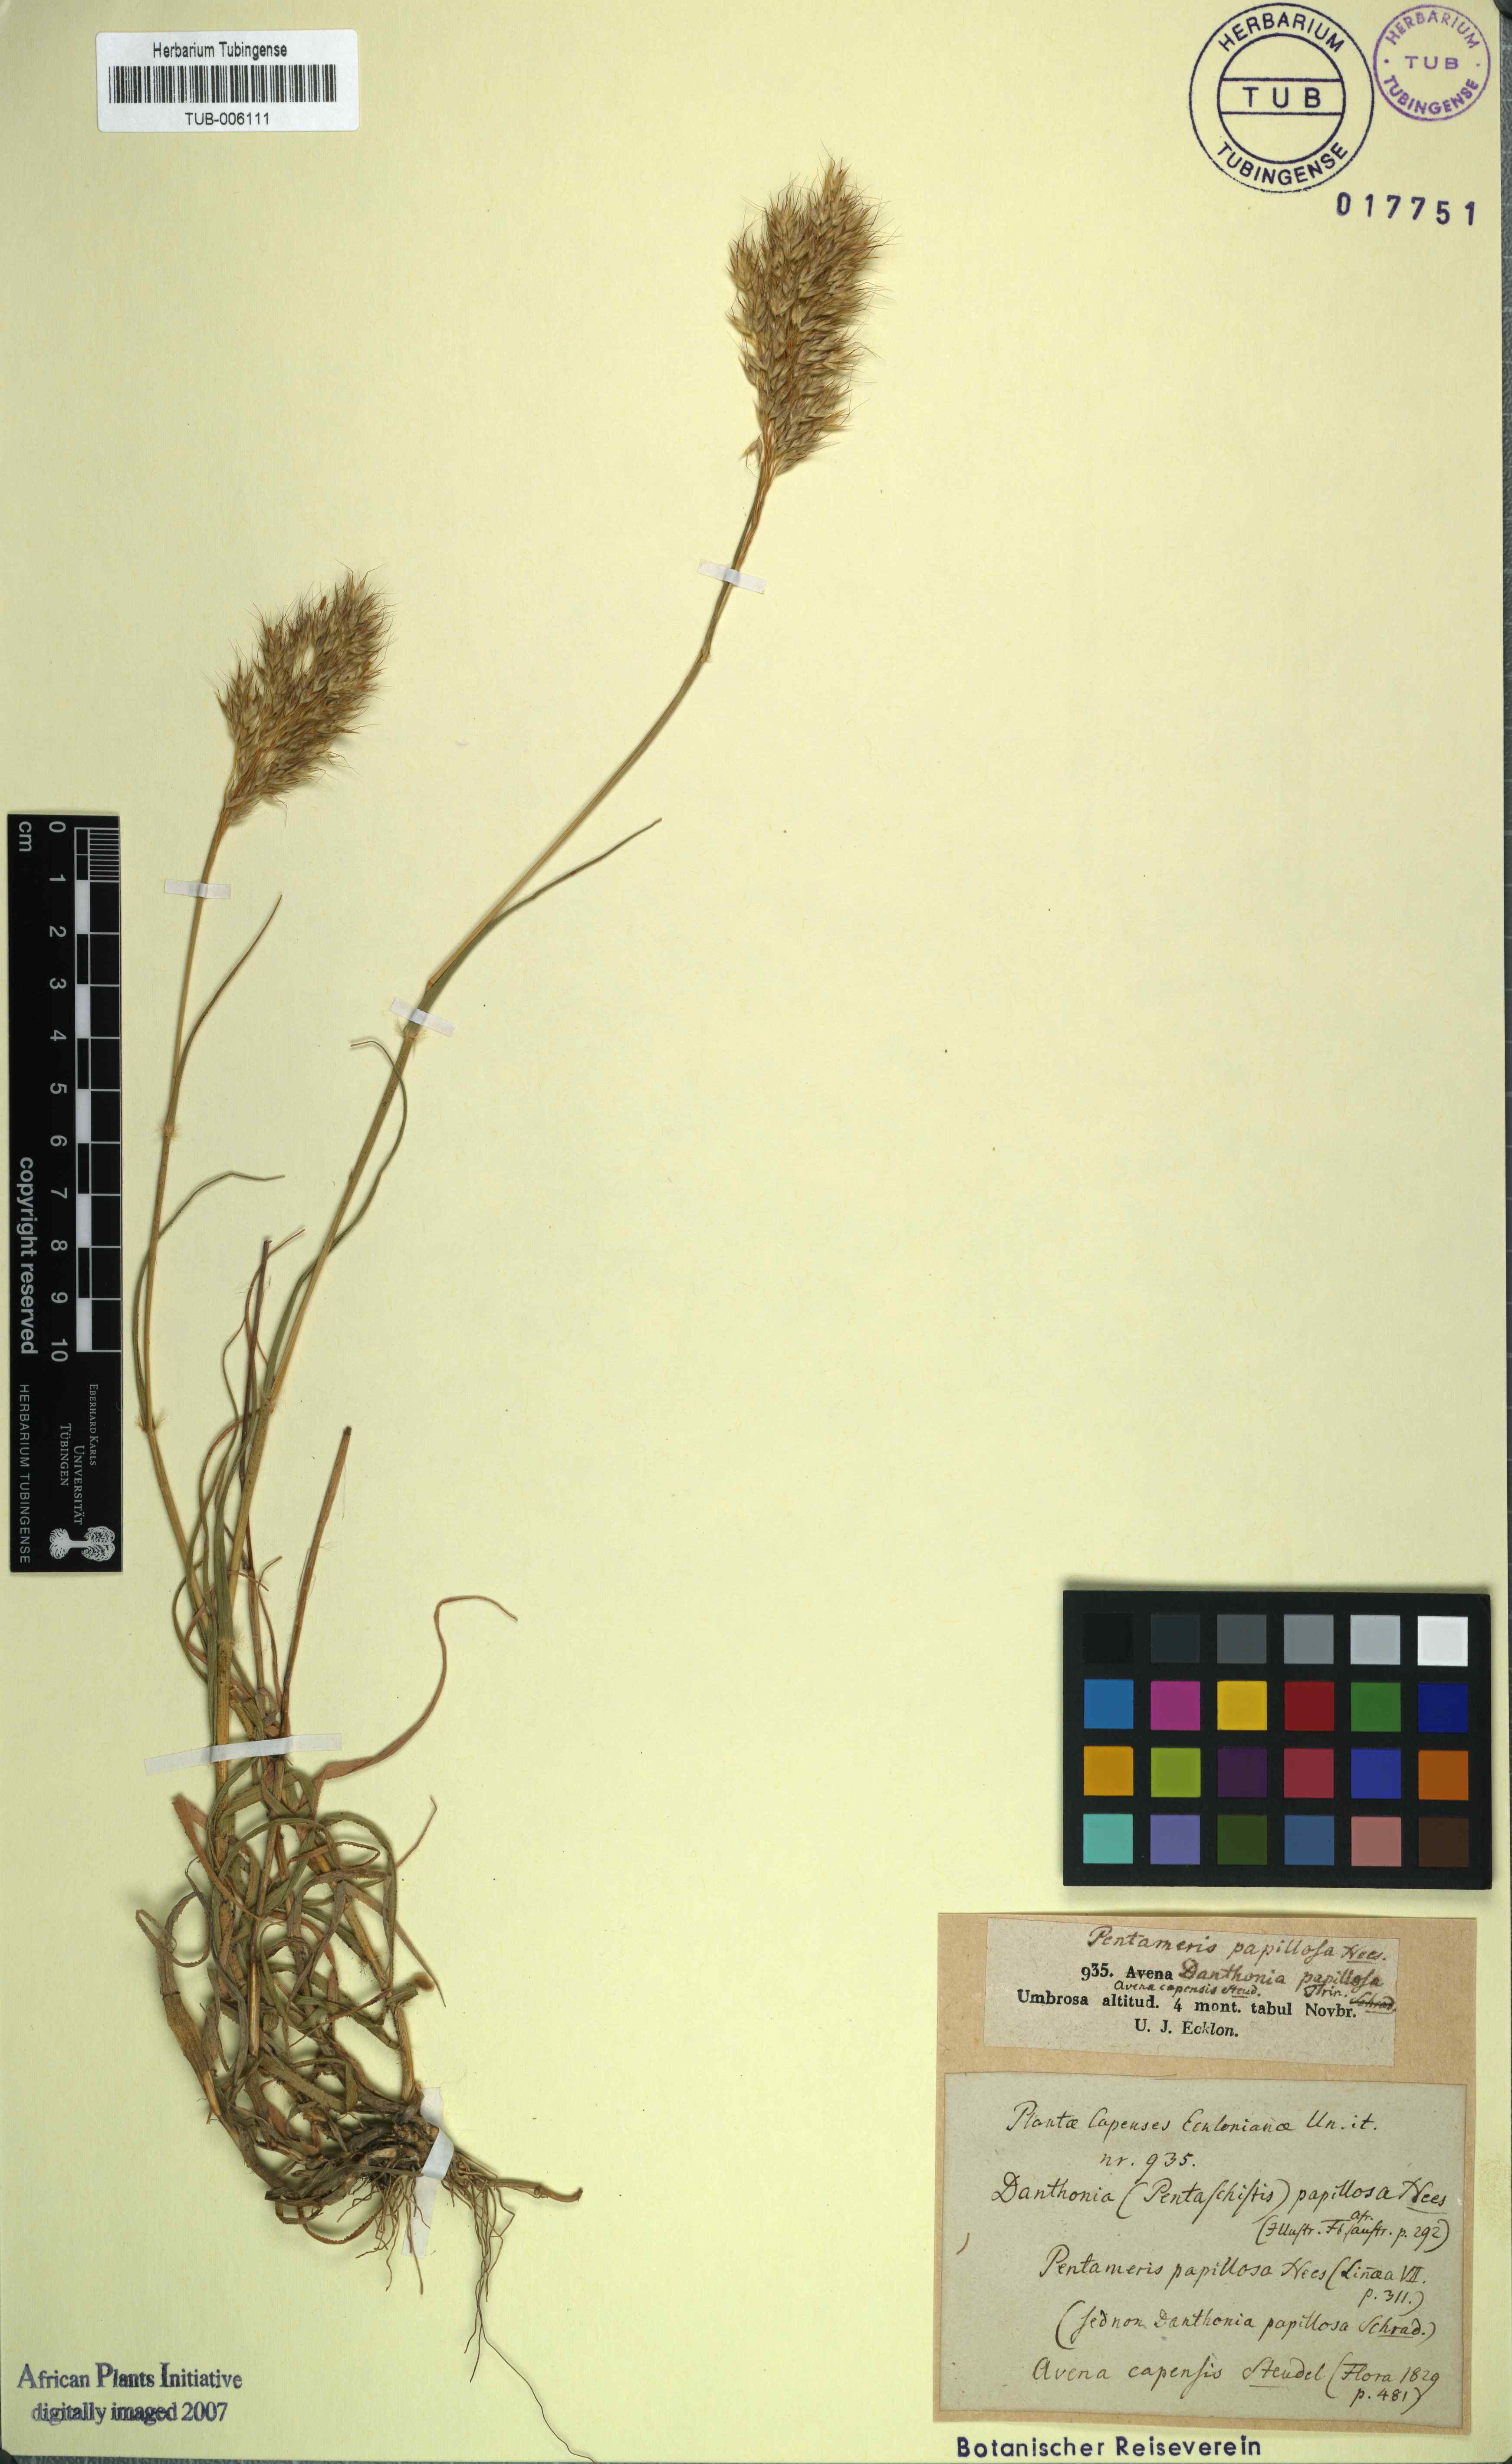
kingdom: Plantae
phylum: Tracheophyta
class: Liliopsida
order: Poales
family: Poaceae
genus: Pentameris
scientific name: Pentameris pallida
